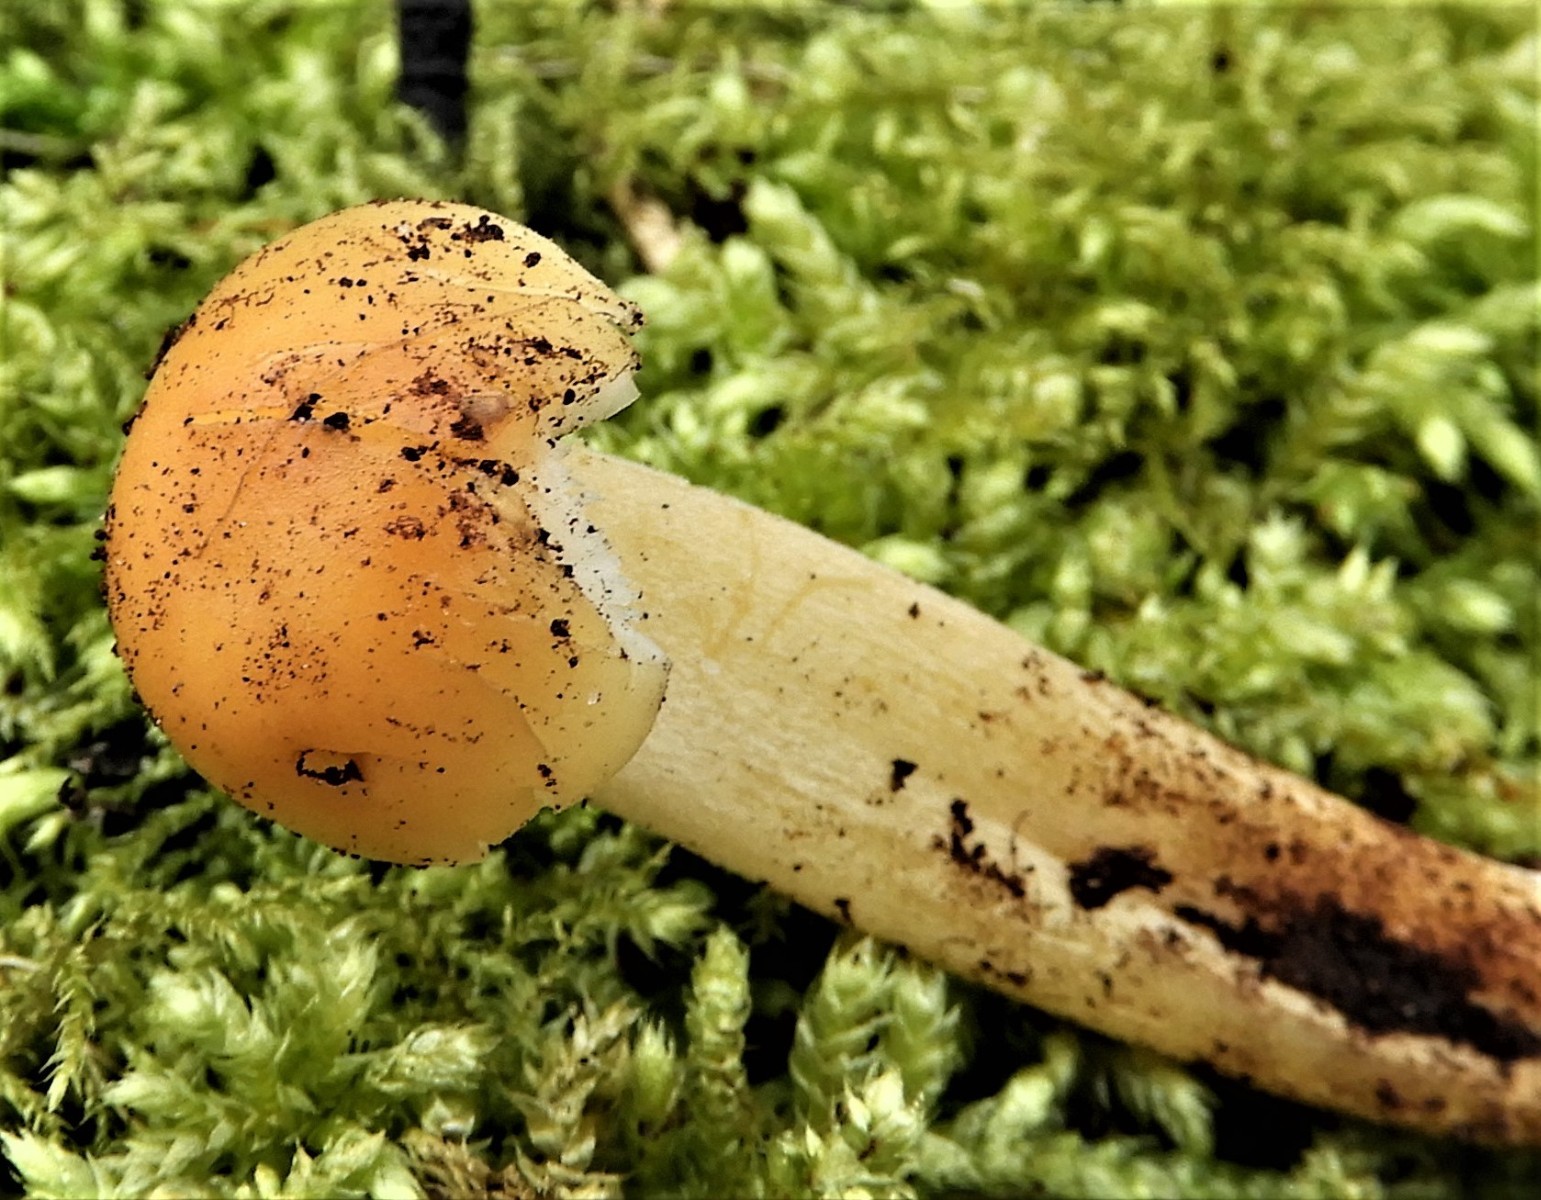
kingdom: Fungi
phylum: Basidiomycota
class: Agaricomycetes
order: Agaricales
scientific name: Agaricales
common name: champignonordenen
